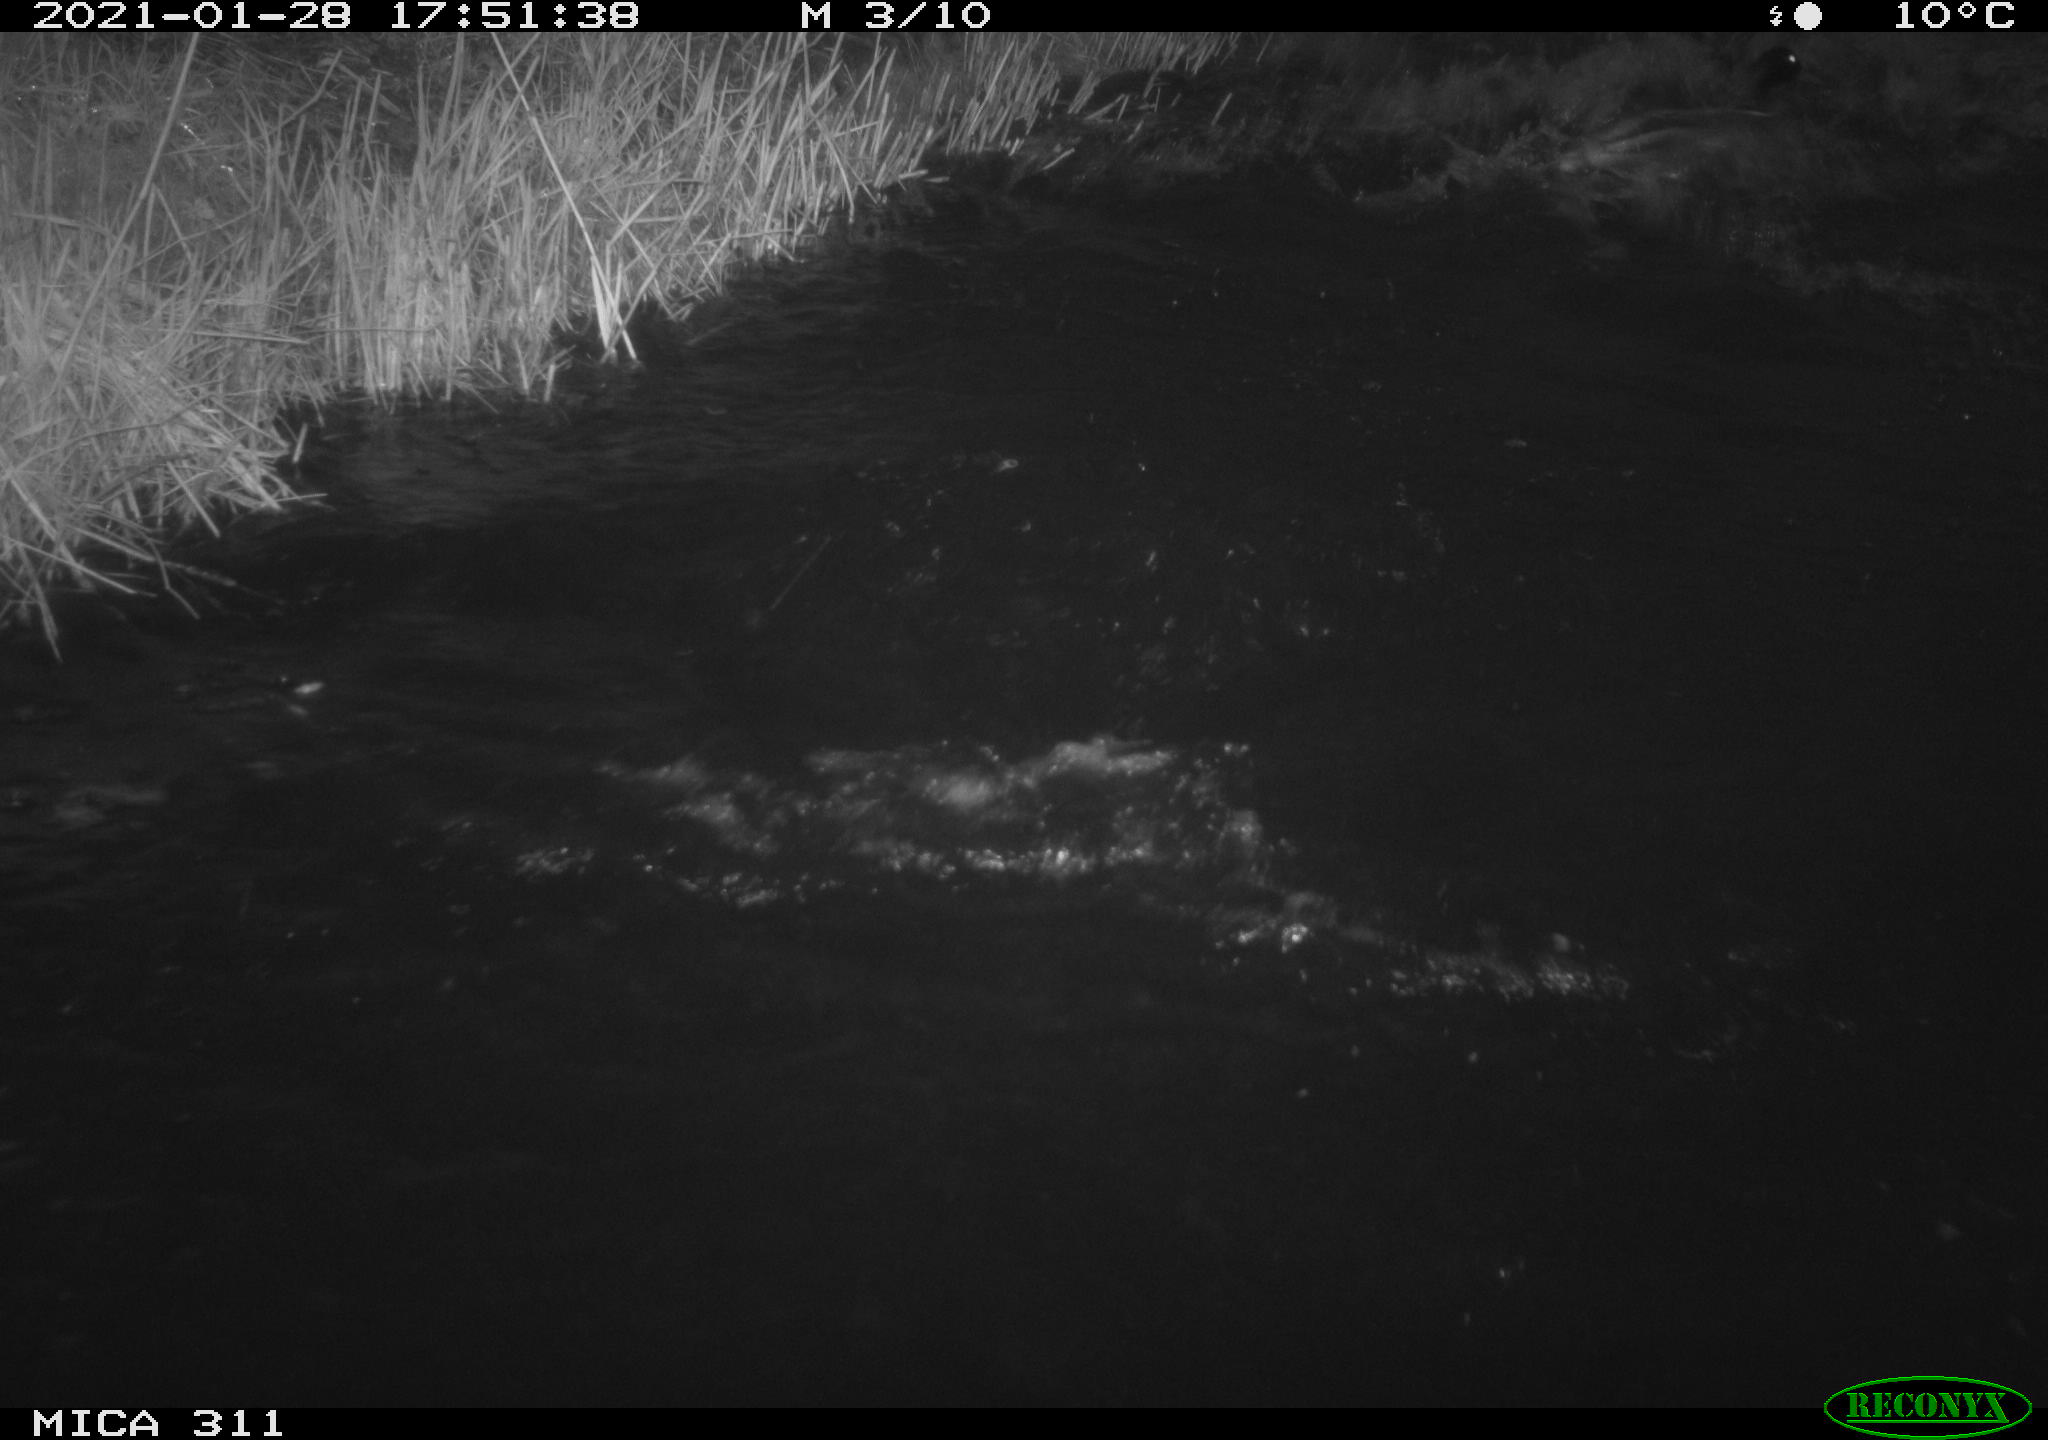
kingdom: Animalia
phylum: Chordata
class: Aves
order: Anseriformes
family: Anatidae
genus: Anas
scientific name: Anas platyrhynchos
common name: Mallard
